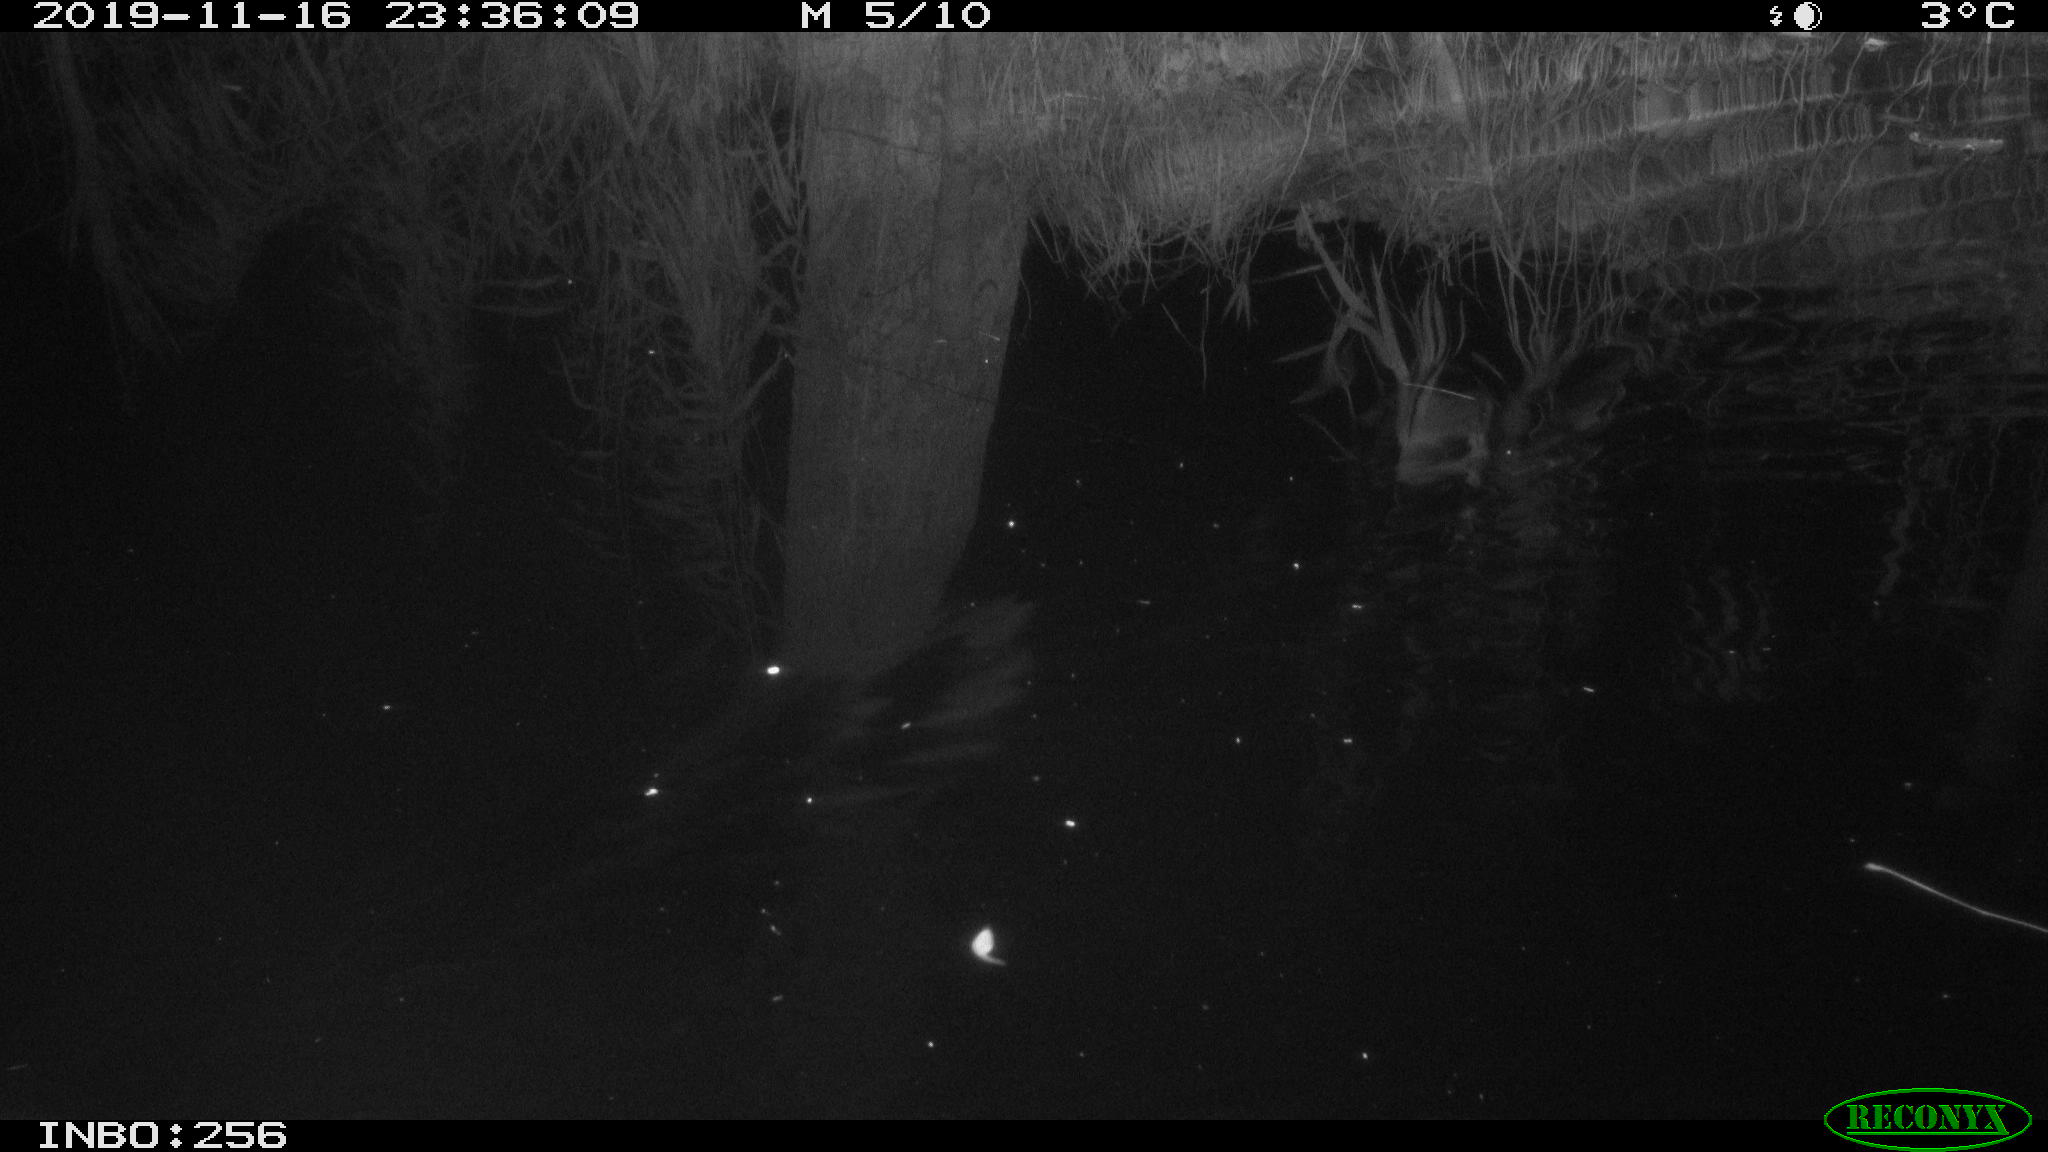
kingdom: Animalia
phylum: Chordata
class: Mammalia
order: Rodentia
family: Muridae
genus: Rattus
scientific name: Rattus norvegicus
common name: Brown rat
